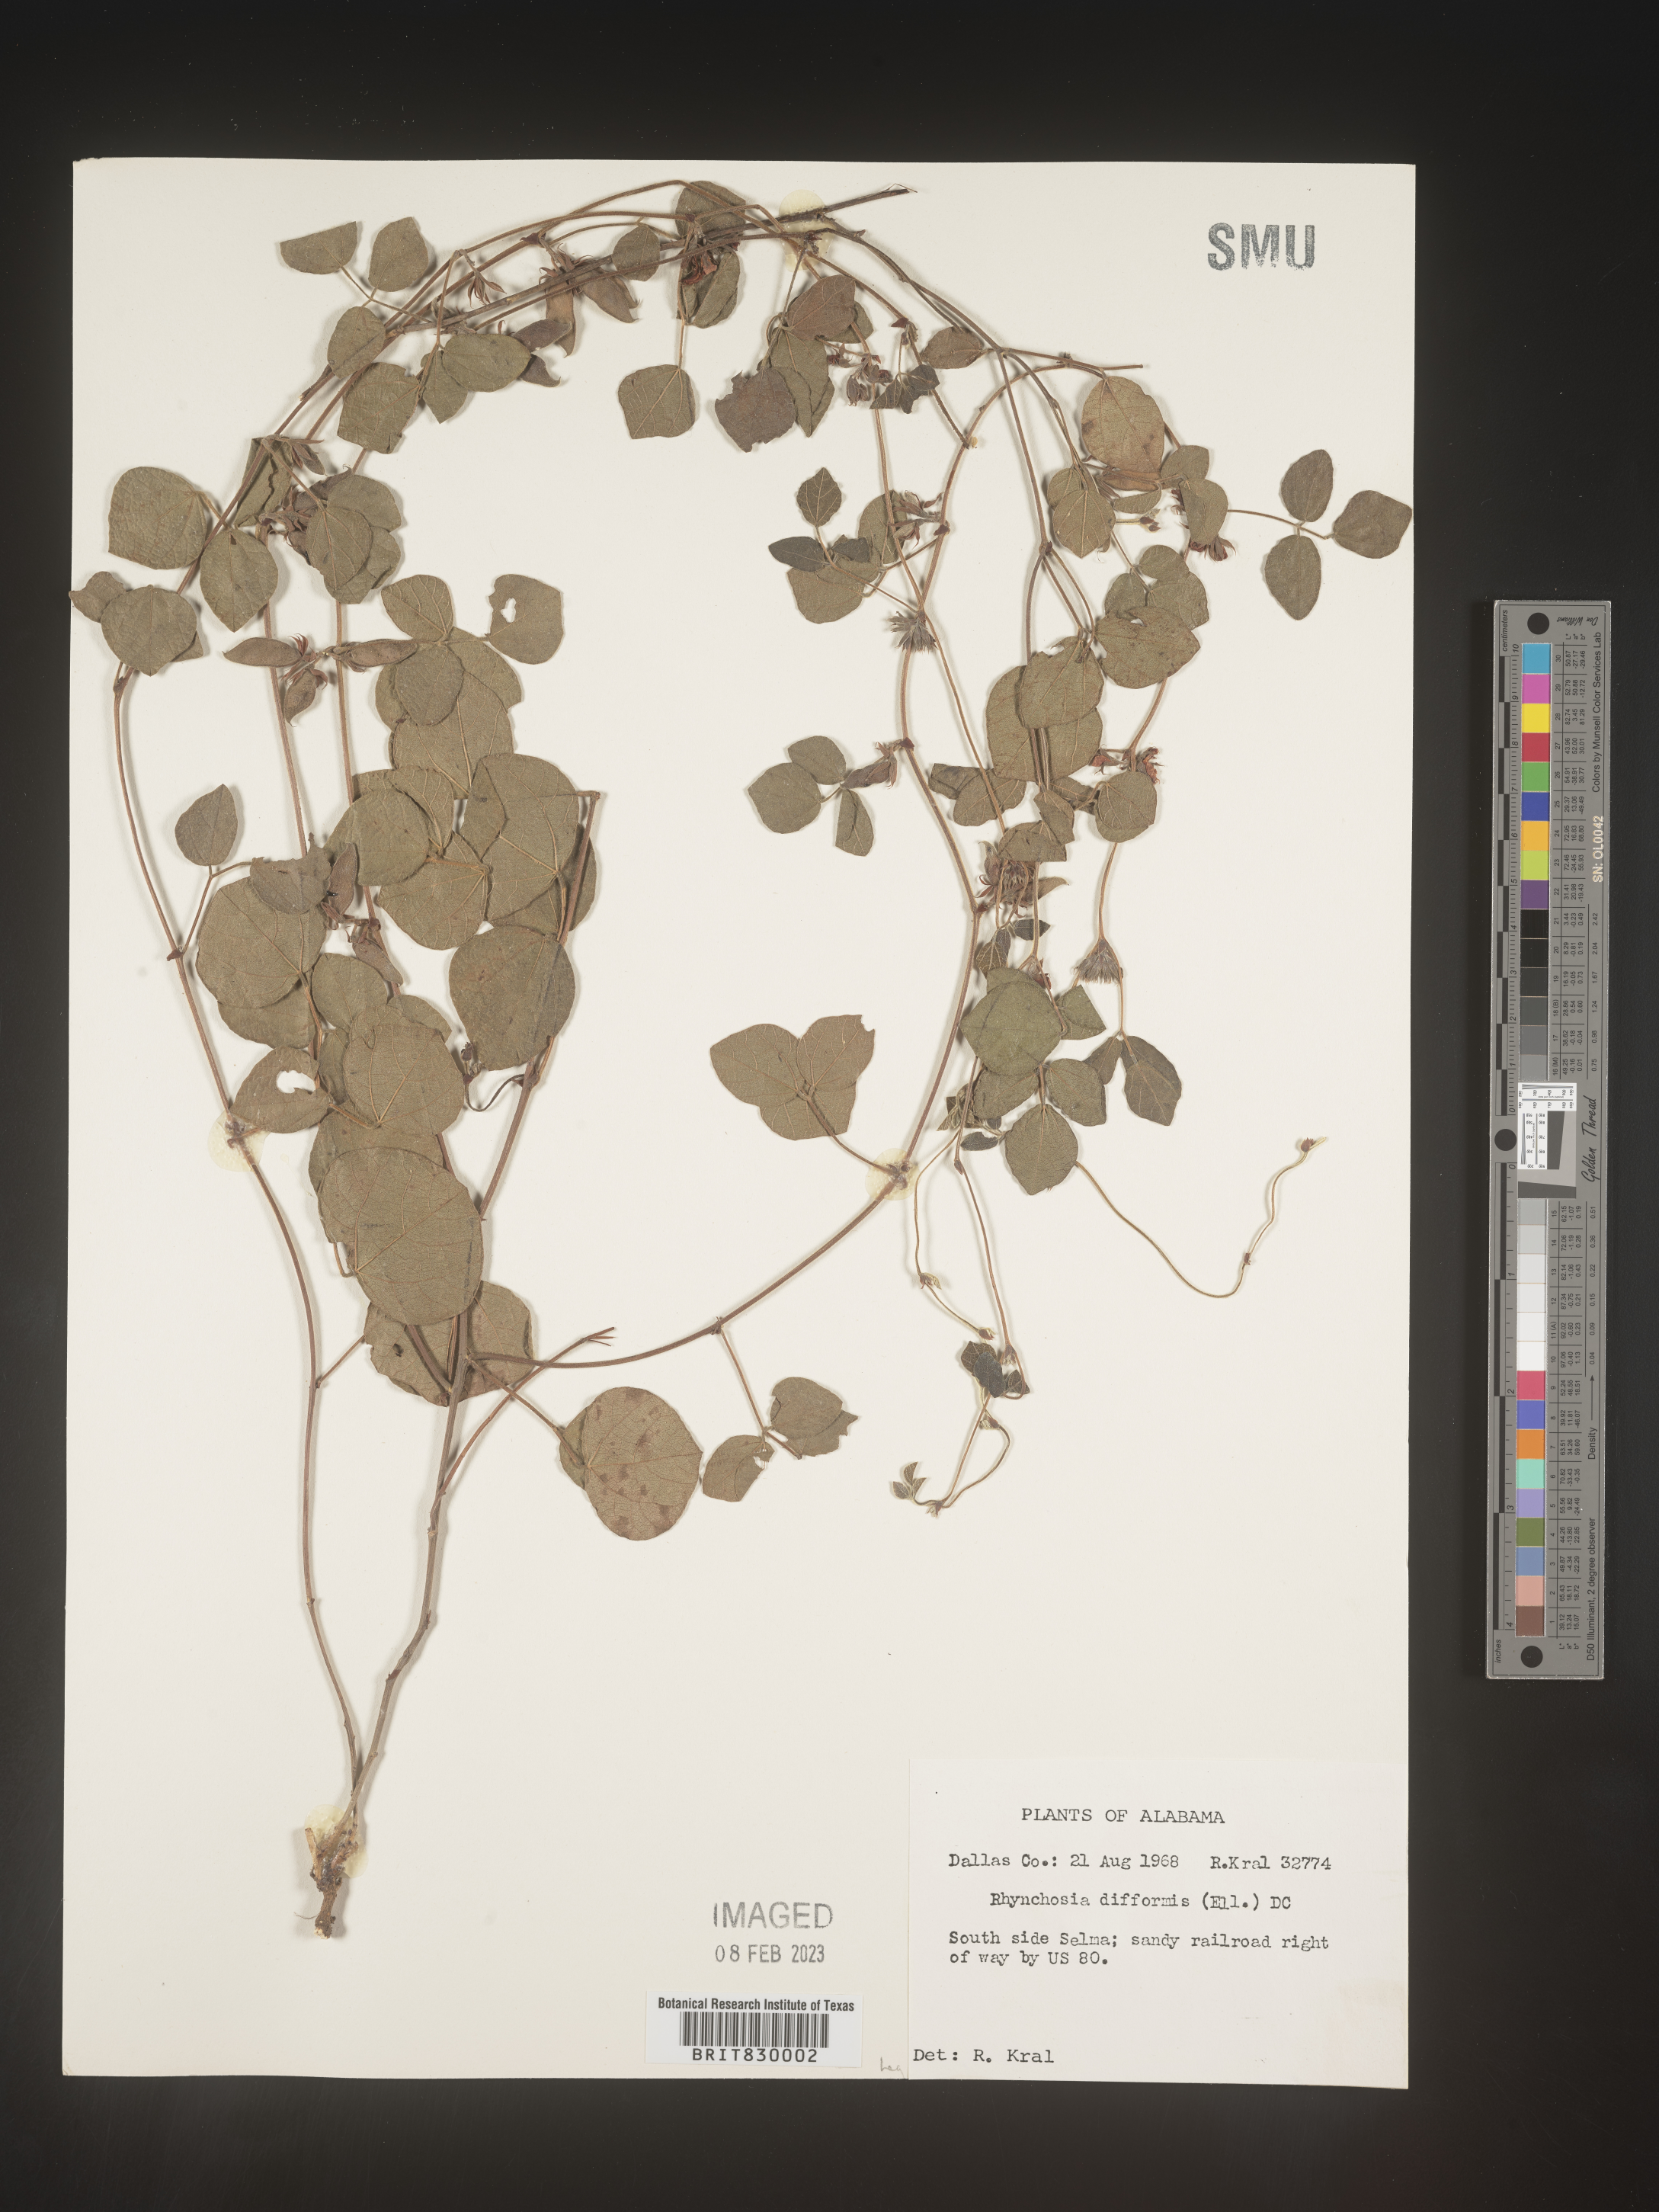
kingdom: Plantae
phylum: Tracheophyta
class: Magnoliopsida
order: Fabales
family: Fabaceae
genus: Rhynchosia
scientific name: Rhynchosia difformis
